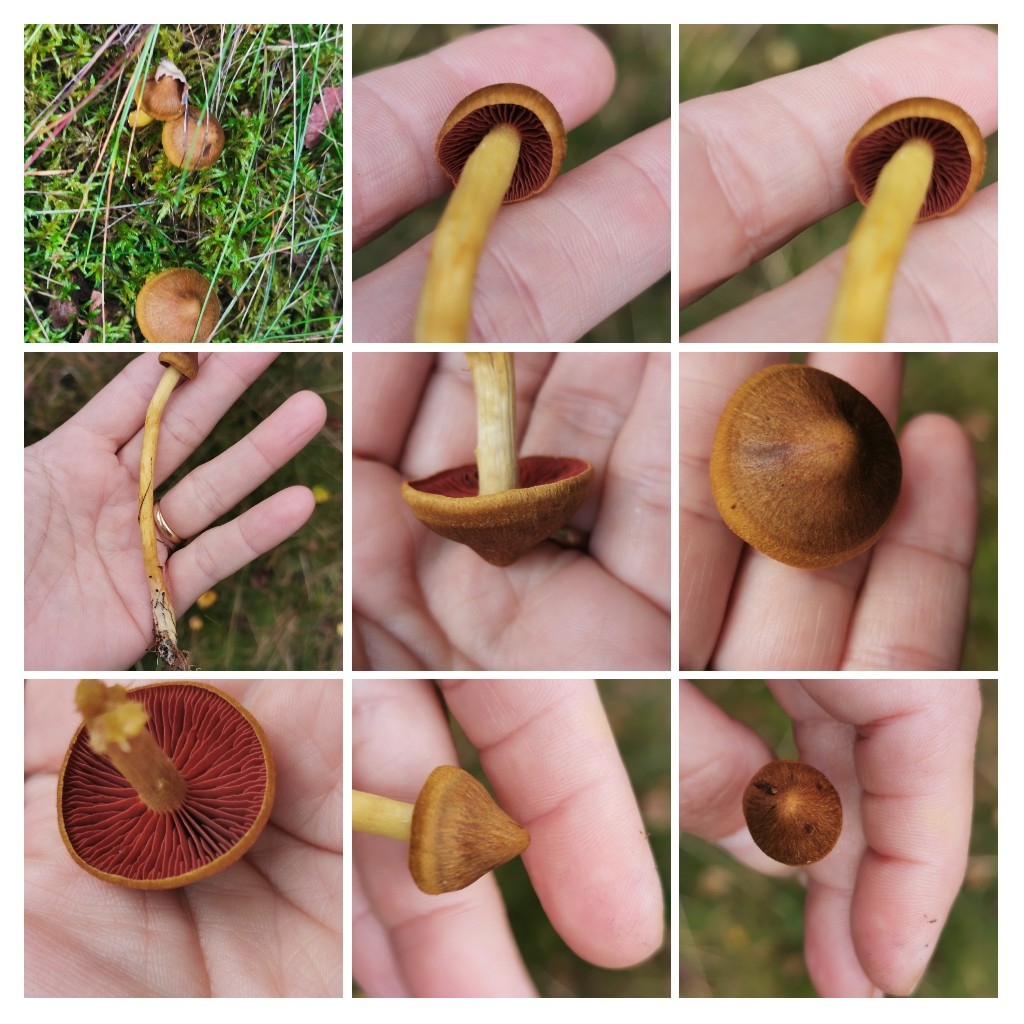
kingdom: Fungi
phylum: Basidiomycota
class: Agaricomycetes
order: Agaricales
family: Cortinariaceae
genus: Cortinarius
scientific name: Cortinarius
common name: cinnoberbladet slørhat
